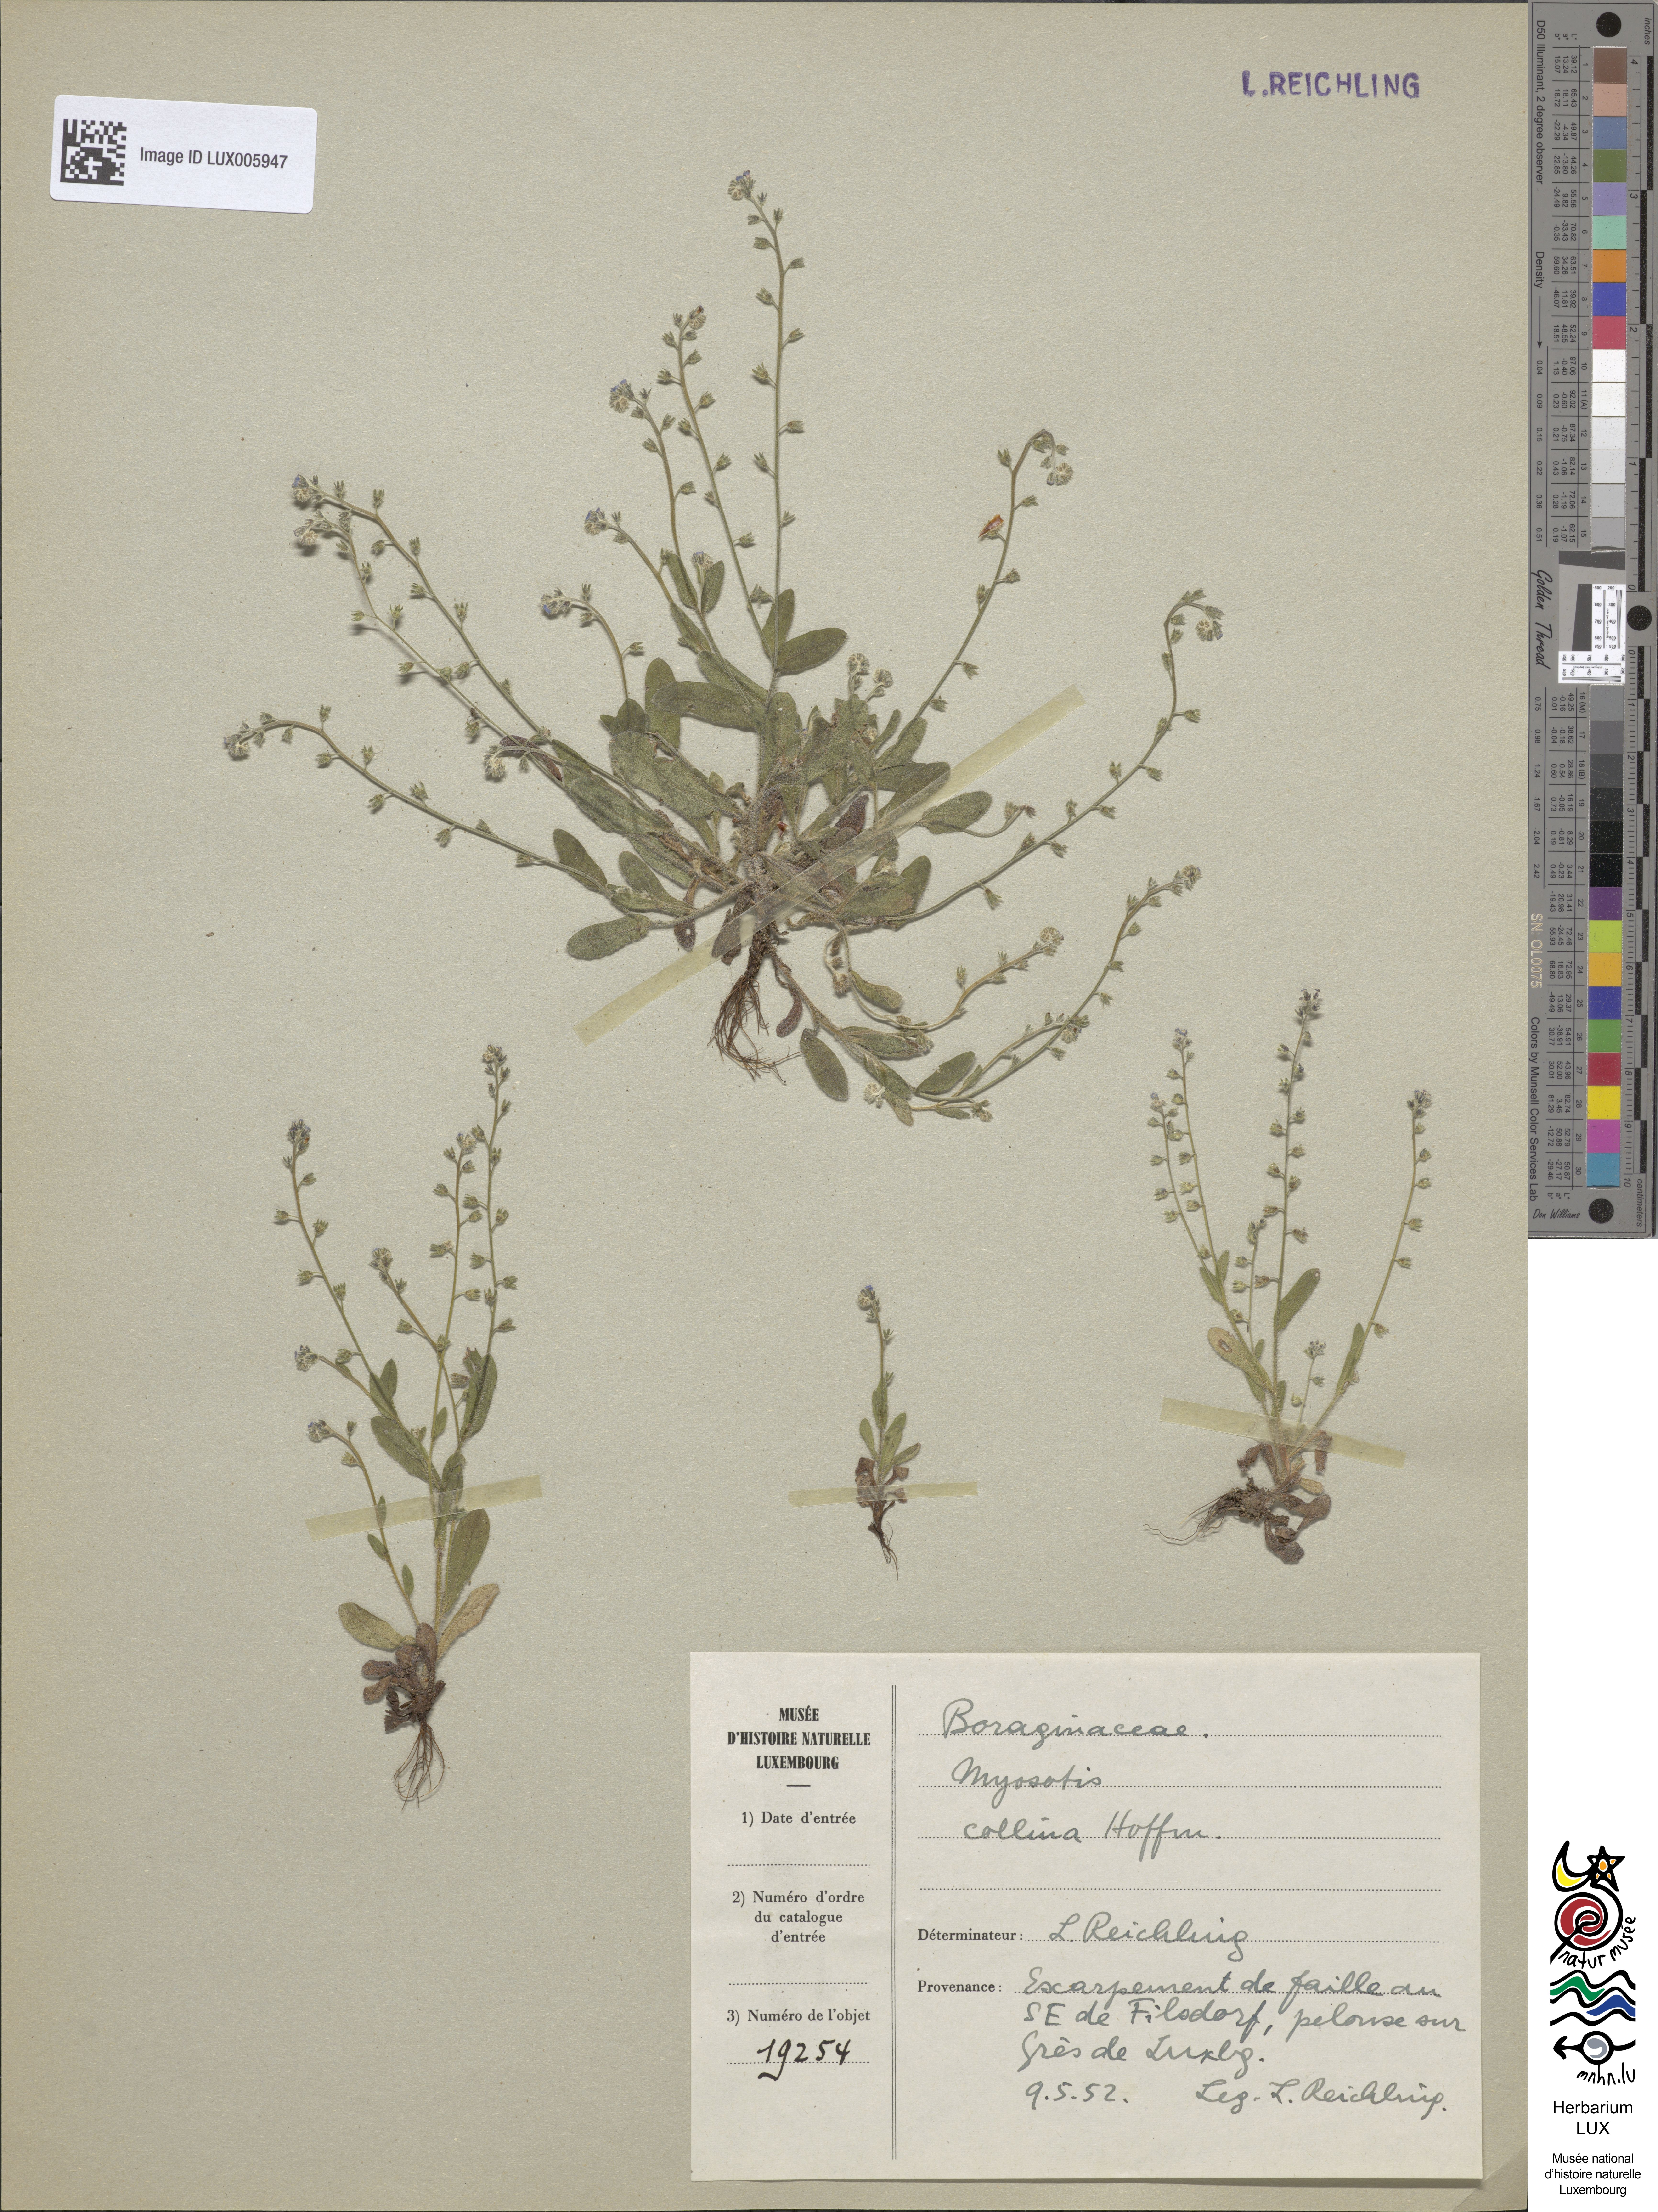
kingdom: Plantae
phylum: Tracheophyta
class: Magnoliopsida
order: Boraginales
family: Boraginaceae
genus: Myosotis
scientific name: Myosotis discolor
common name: Changing forget-me-not
